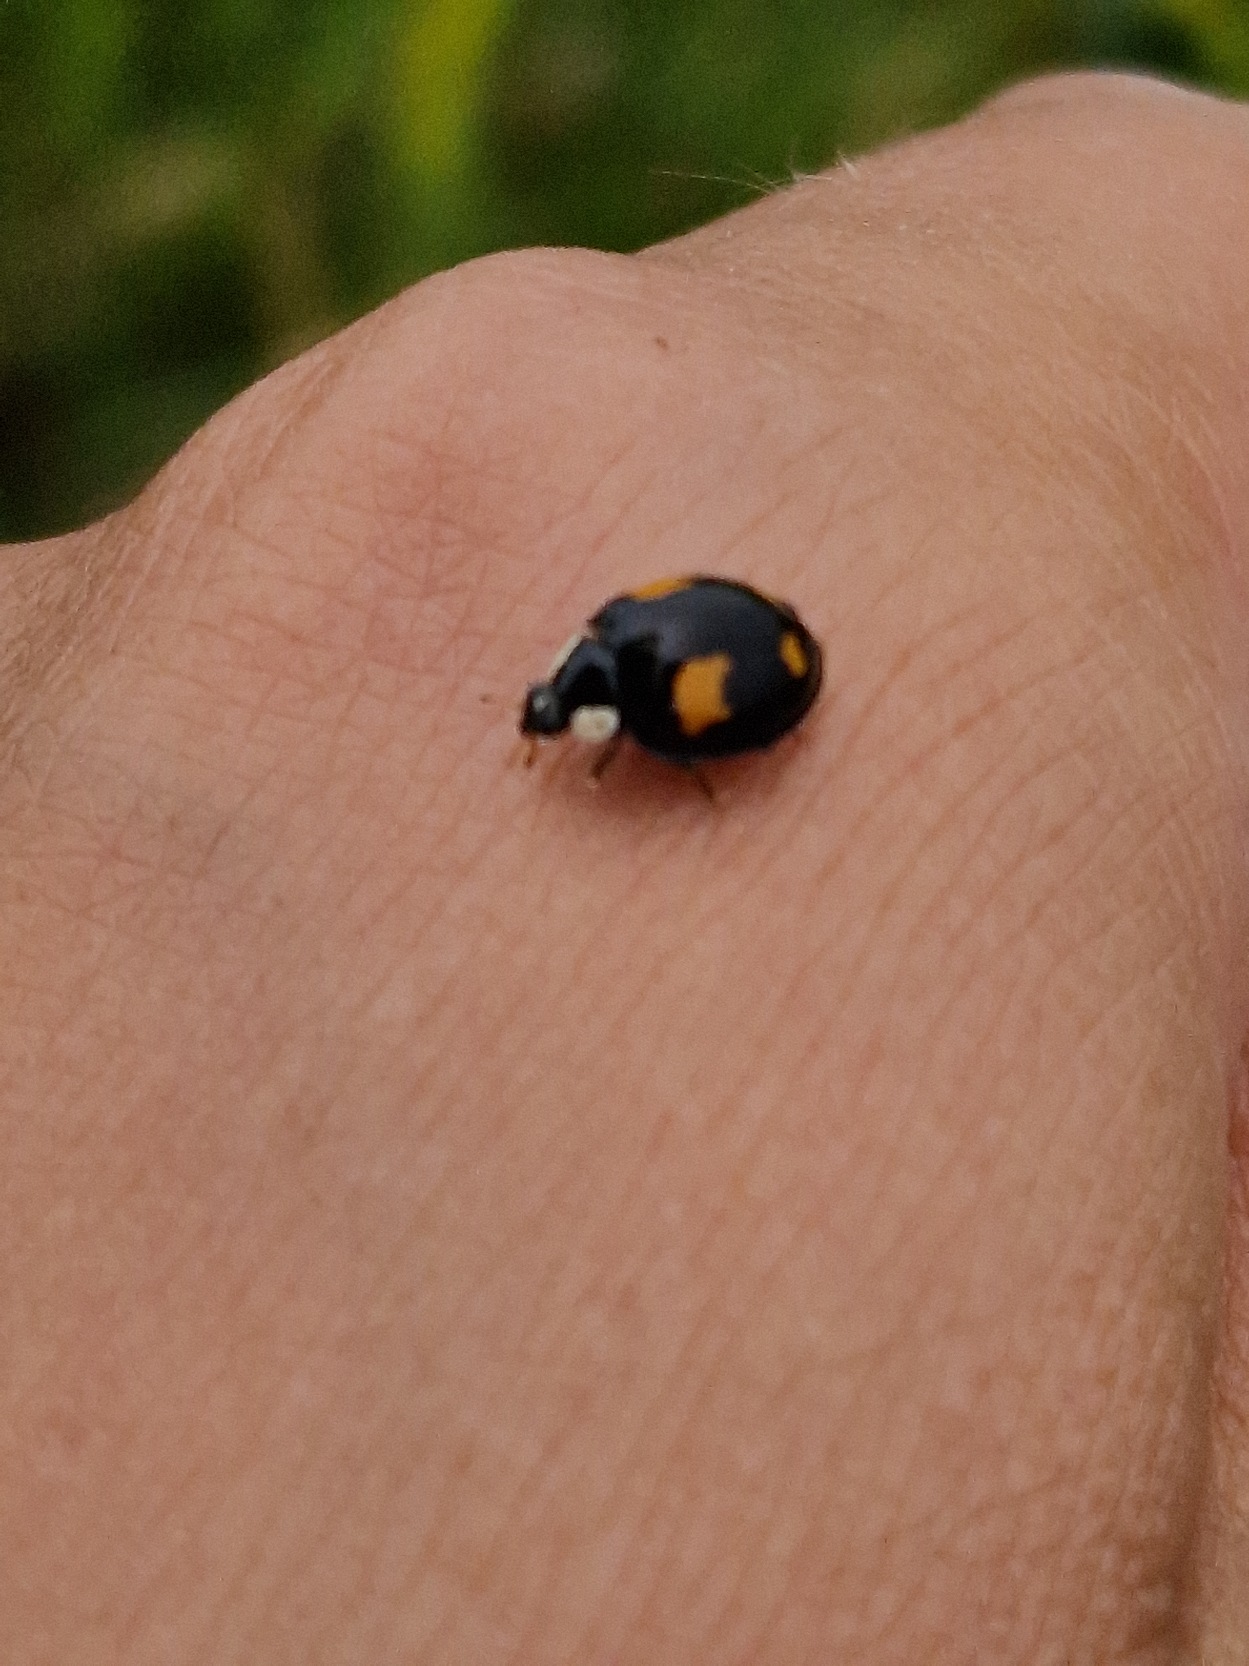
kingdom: Animalia
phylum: Arthropoda
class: Insecta
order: Coleoptera
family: Coccinellidae
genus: Harmonia
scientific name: Harmonia axyridis
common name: Harlekinmariehøne
